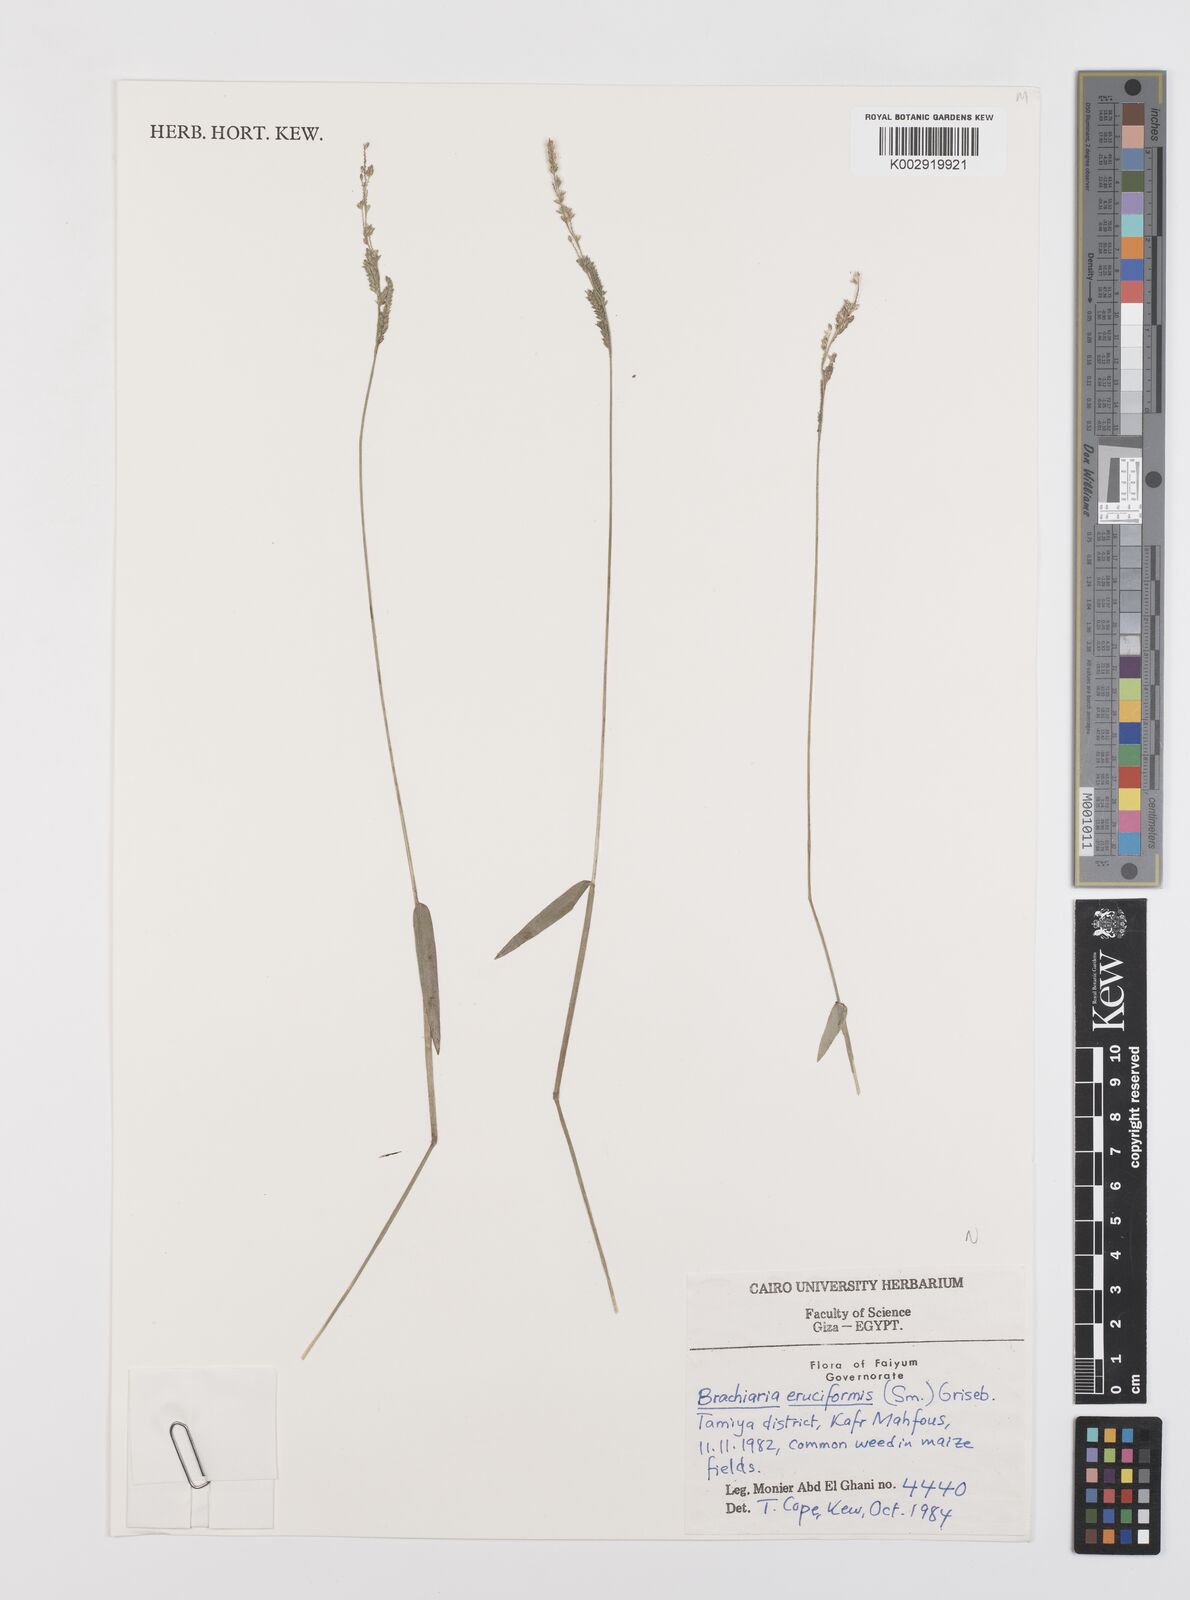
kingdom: Plantae
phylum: Tracheophyta
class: Liliopsida
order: Poales
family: Poaceae
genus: Moorochloa
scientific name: Moorochloa eruciformis
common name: Sweet signalgrass
